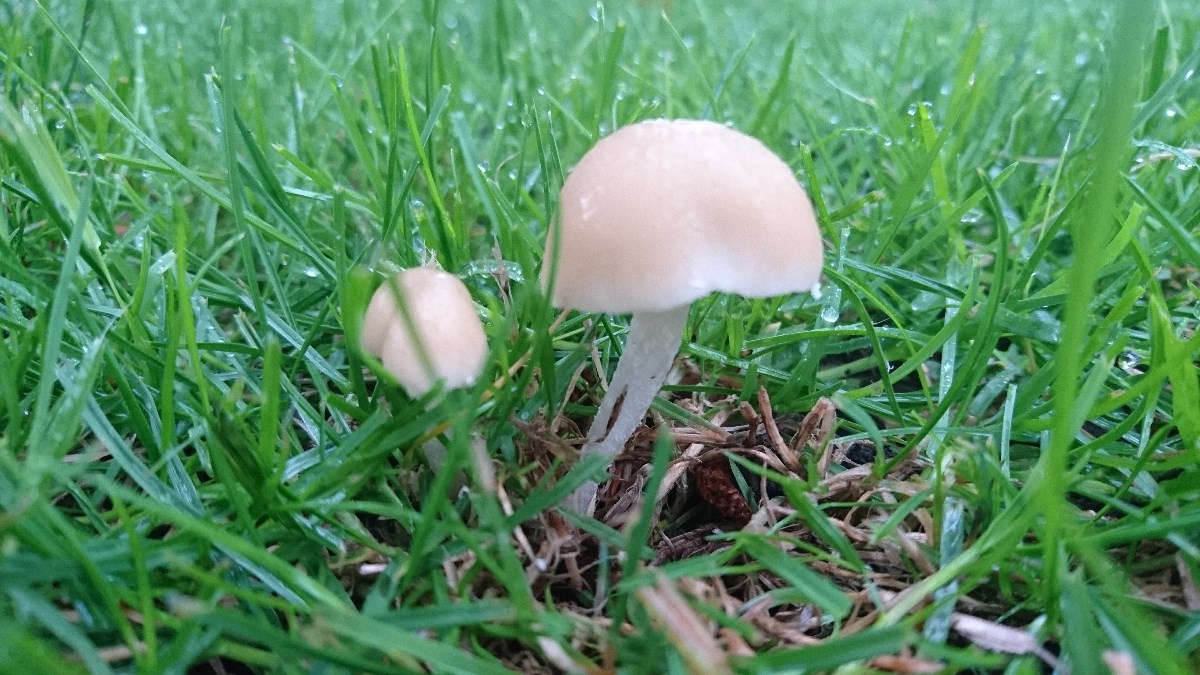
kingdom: Fungi
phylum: Basidiomycota
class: Agaricomycetes
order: Agaricales
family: Psathyrellaceae
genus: Candolleomyces
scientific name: Candolleomyces candolleanus
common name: Candolles mørkhat
